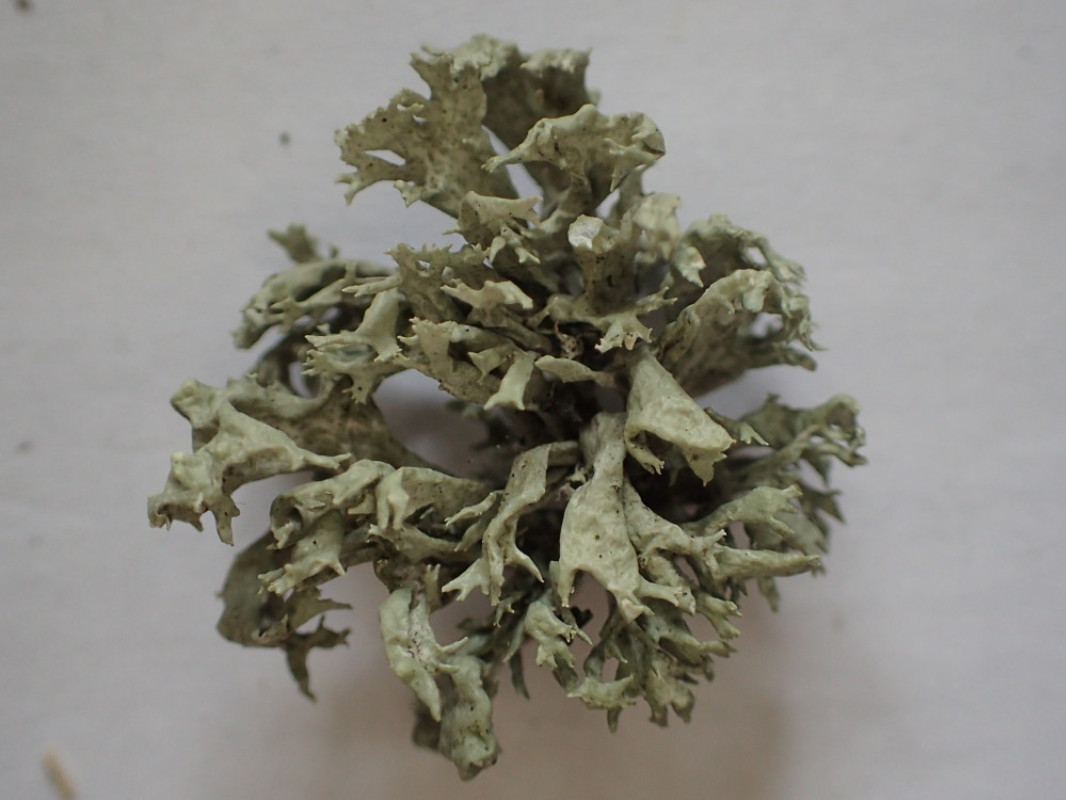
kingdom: Fungi
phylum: Ascomycota
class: Lecanoromycetes
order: Lecanorales
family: Ramalinaceae
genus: Ramalina
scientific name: Ramalina fastigiata
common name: tue-grenlav
